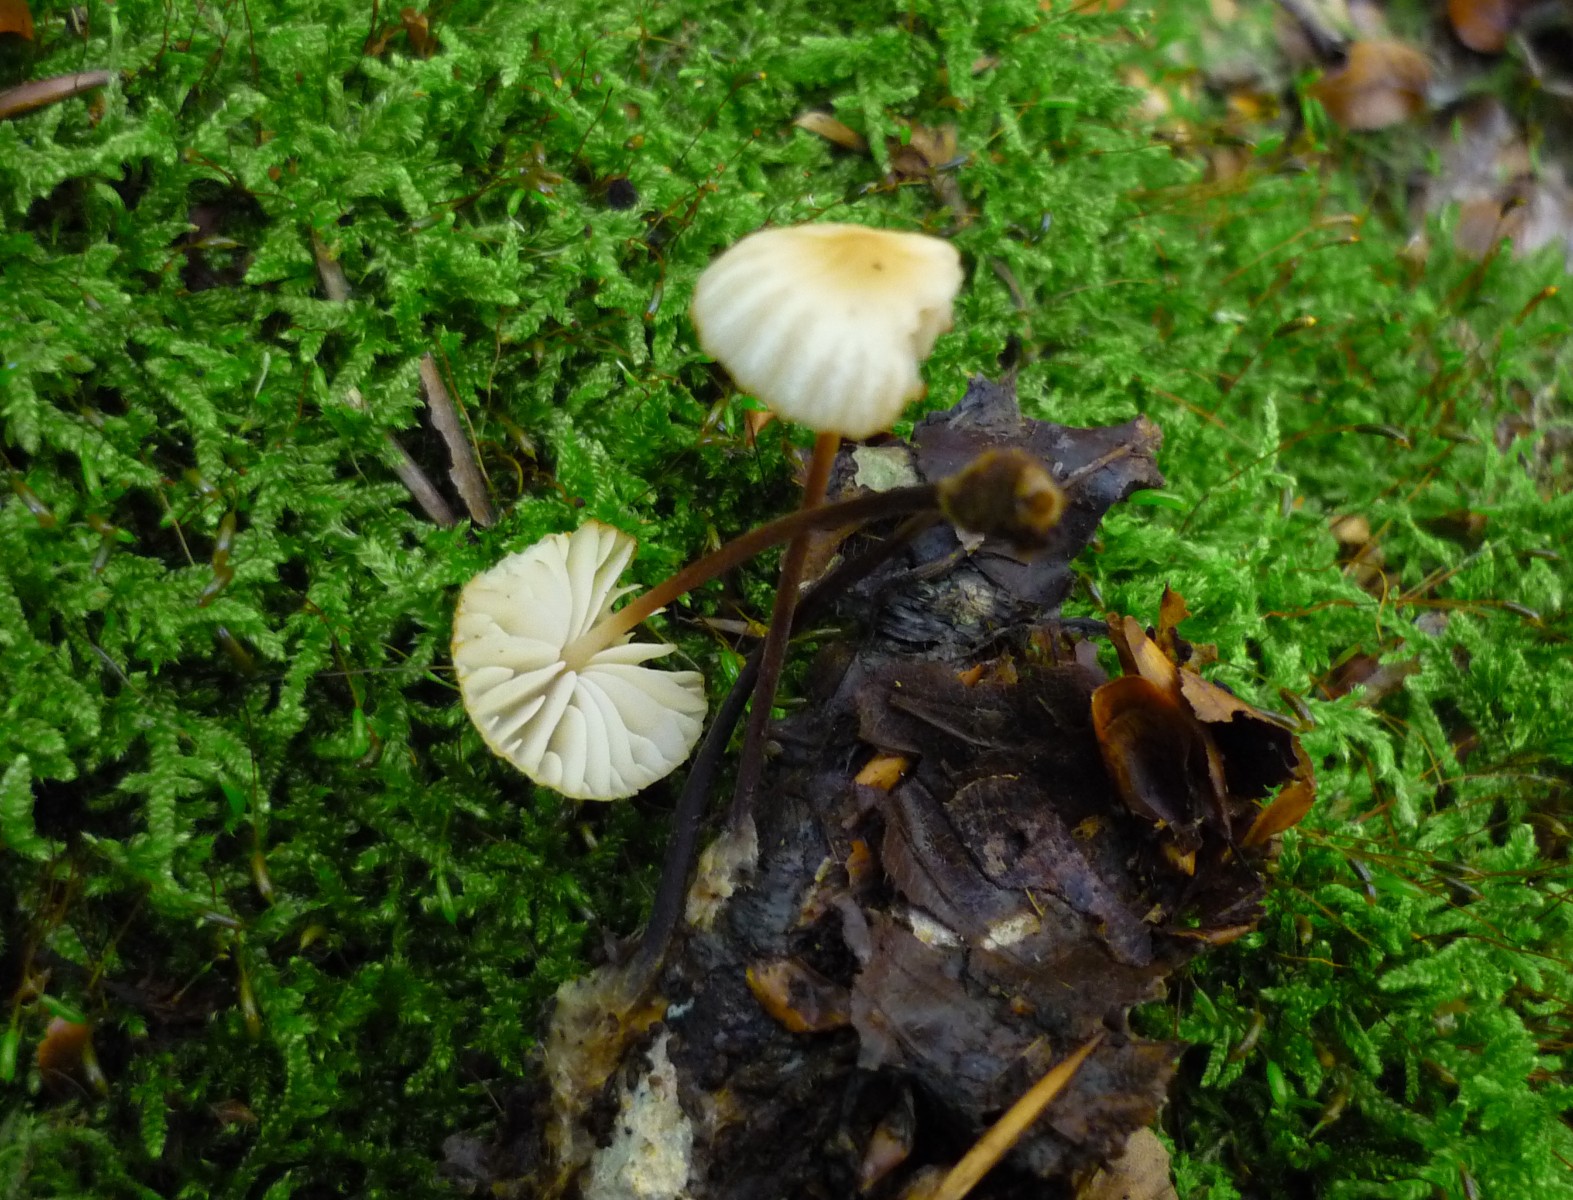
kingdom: Fungi
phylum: Basidiomycota
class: Agaricomycetes
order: Agaricales
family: Marasmiaceae
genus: Marasmius
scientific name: Marasmius torquescens
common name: filtfodet bruskhat
